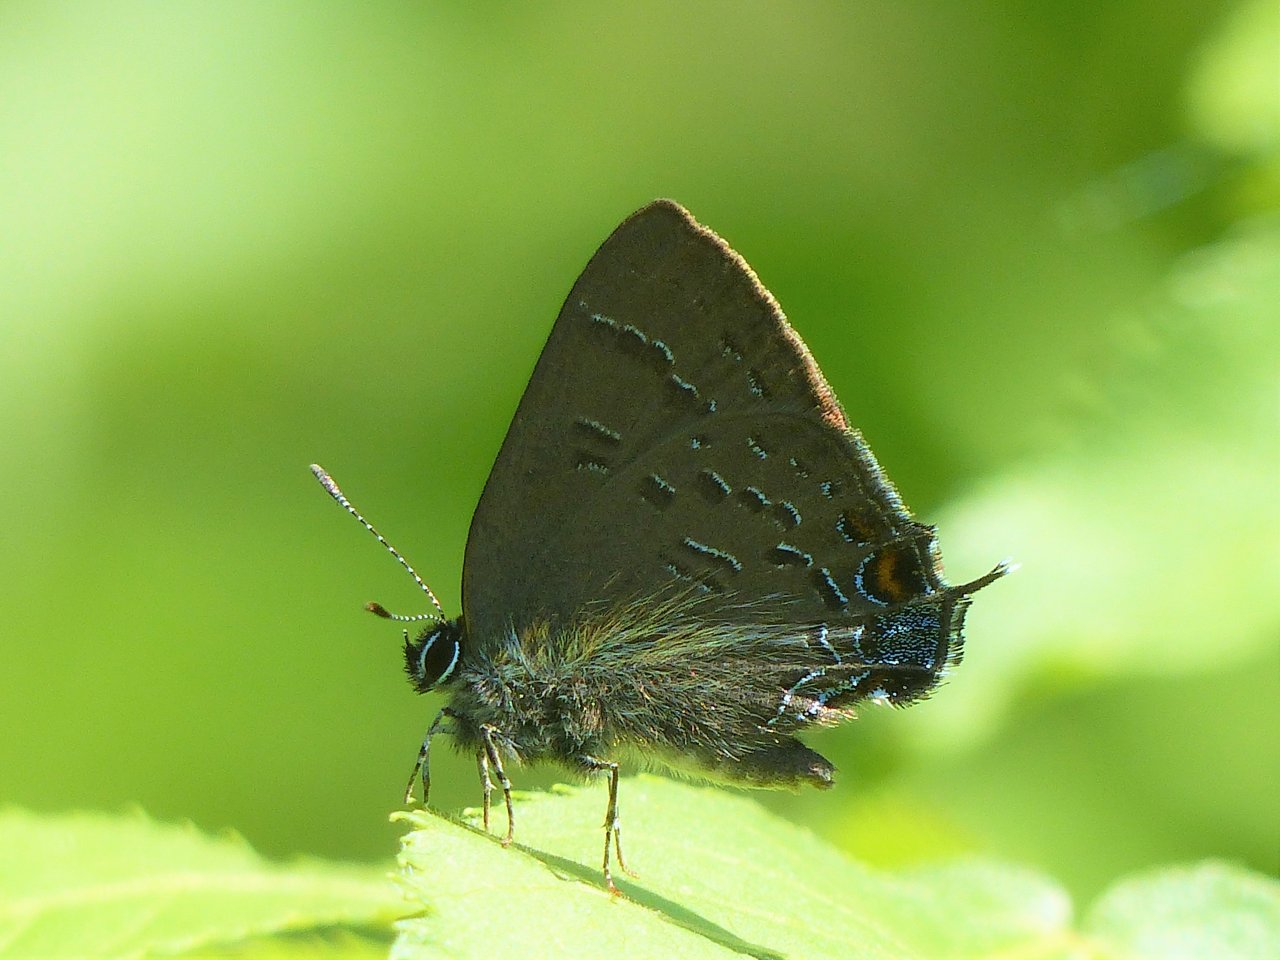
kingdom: Animalia
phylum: Arthropoda
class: Insecta
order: Lepidoptera
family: Lycaenidae
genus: Satyrium
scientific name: Satyrium calanus
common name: Banded Hairstreak
